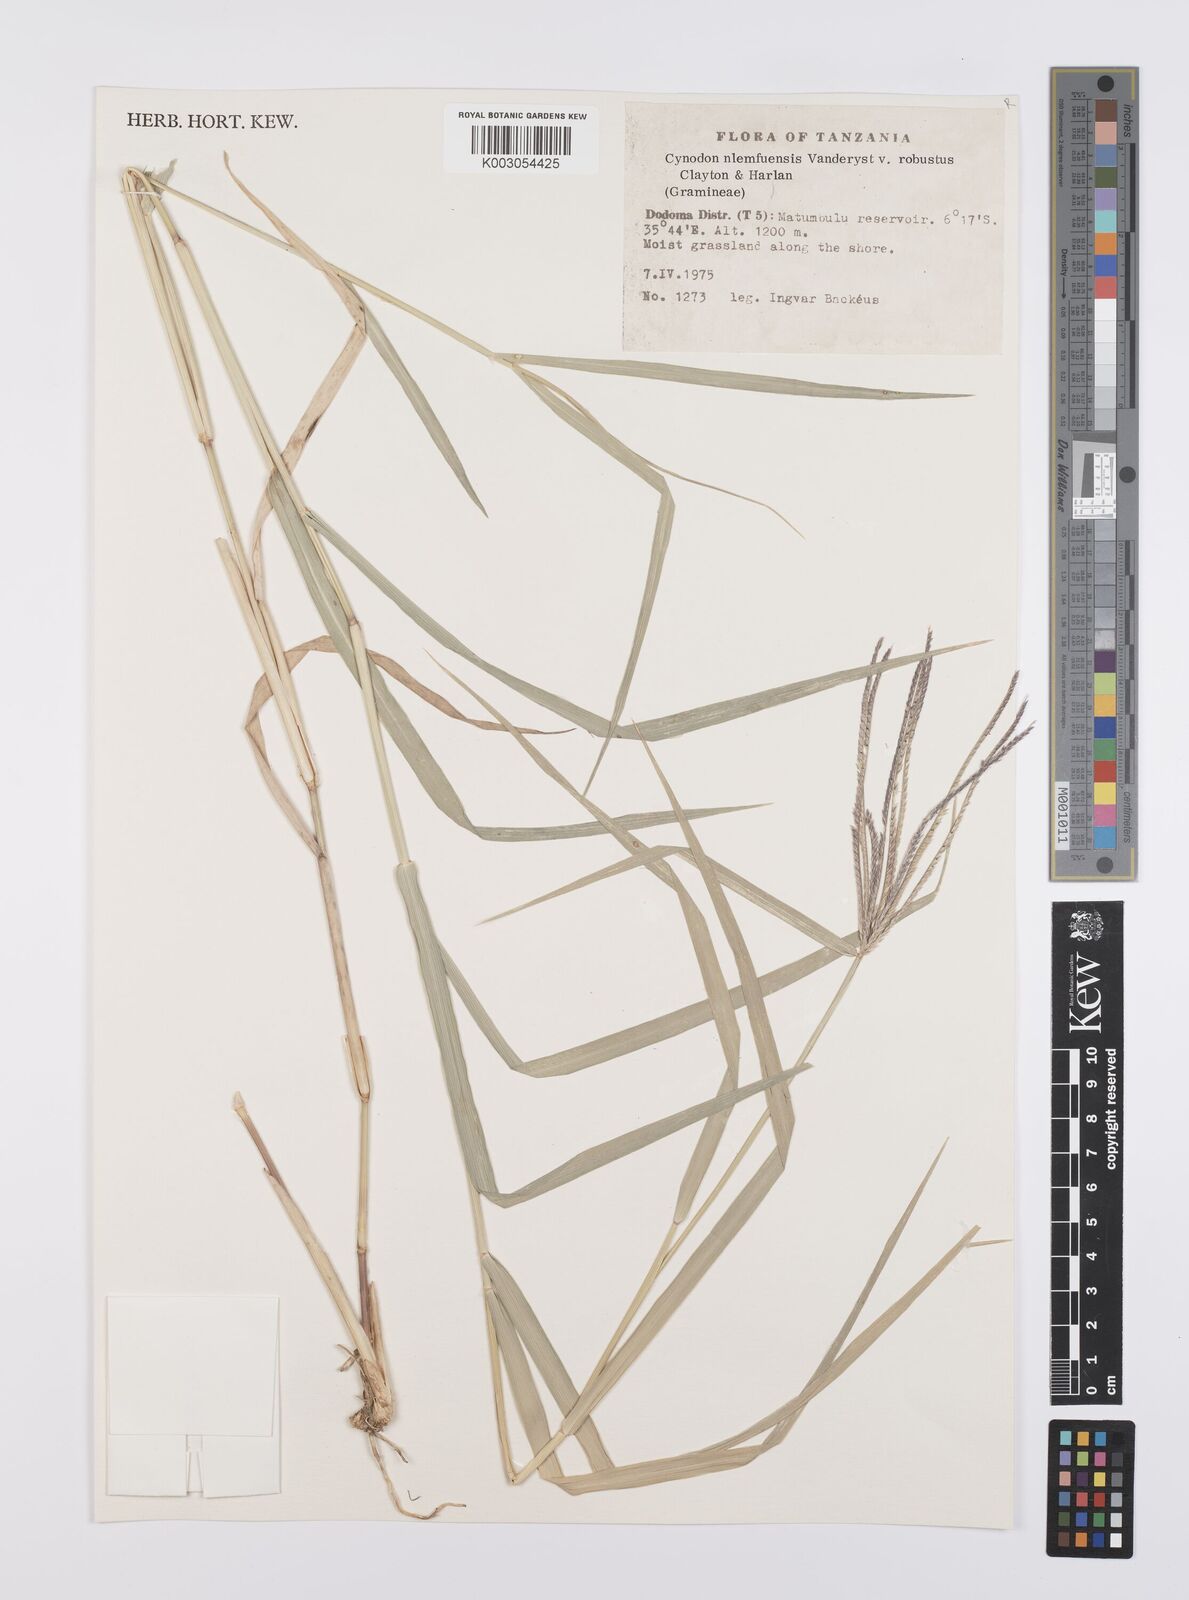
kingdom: Plantae
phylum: Tracheophyta
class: Liliopsida
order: Poales
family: Poaceae
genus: Cynodon
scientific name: Cynodon nlemfuensis
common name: African bermudagrass
